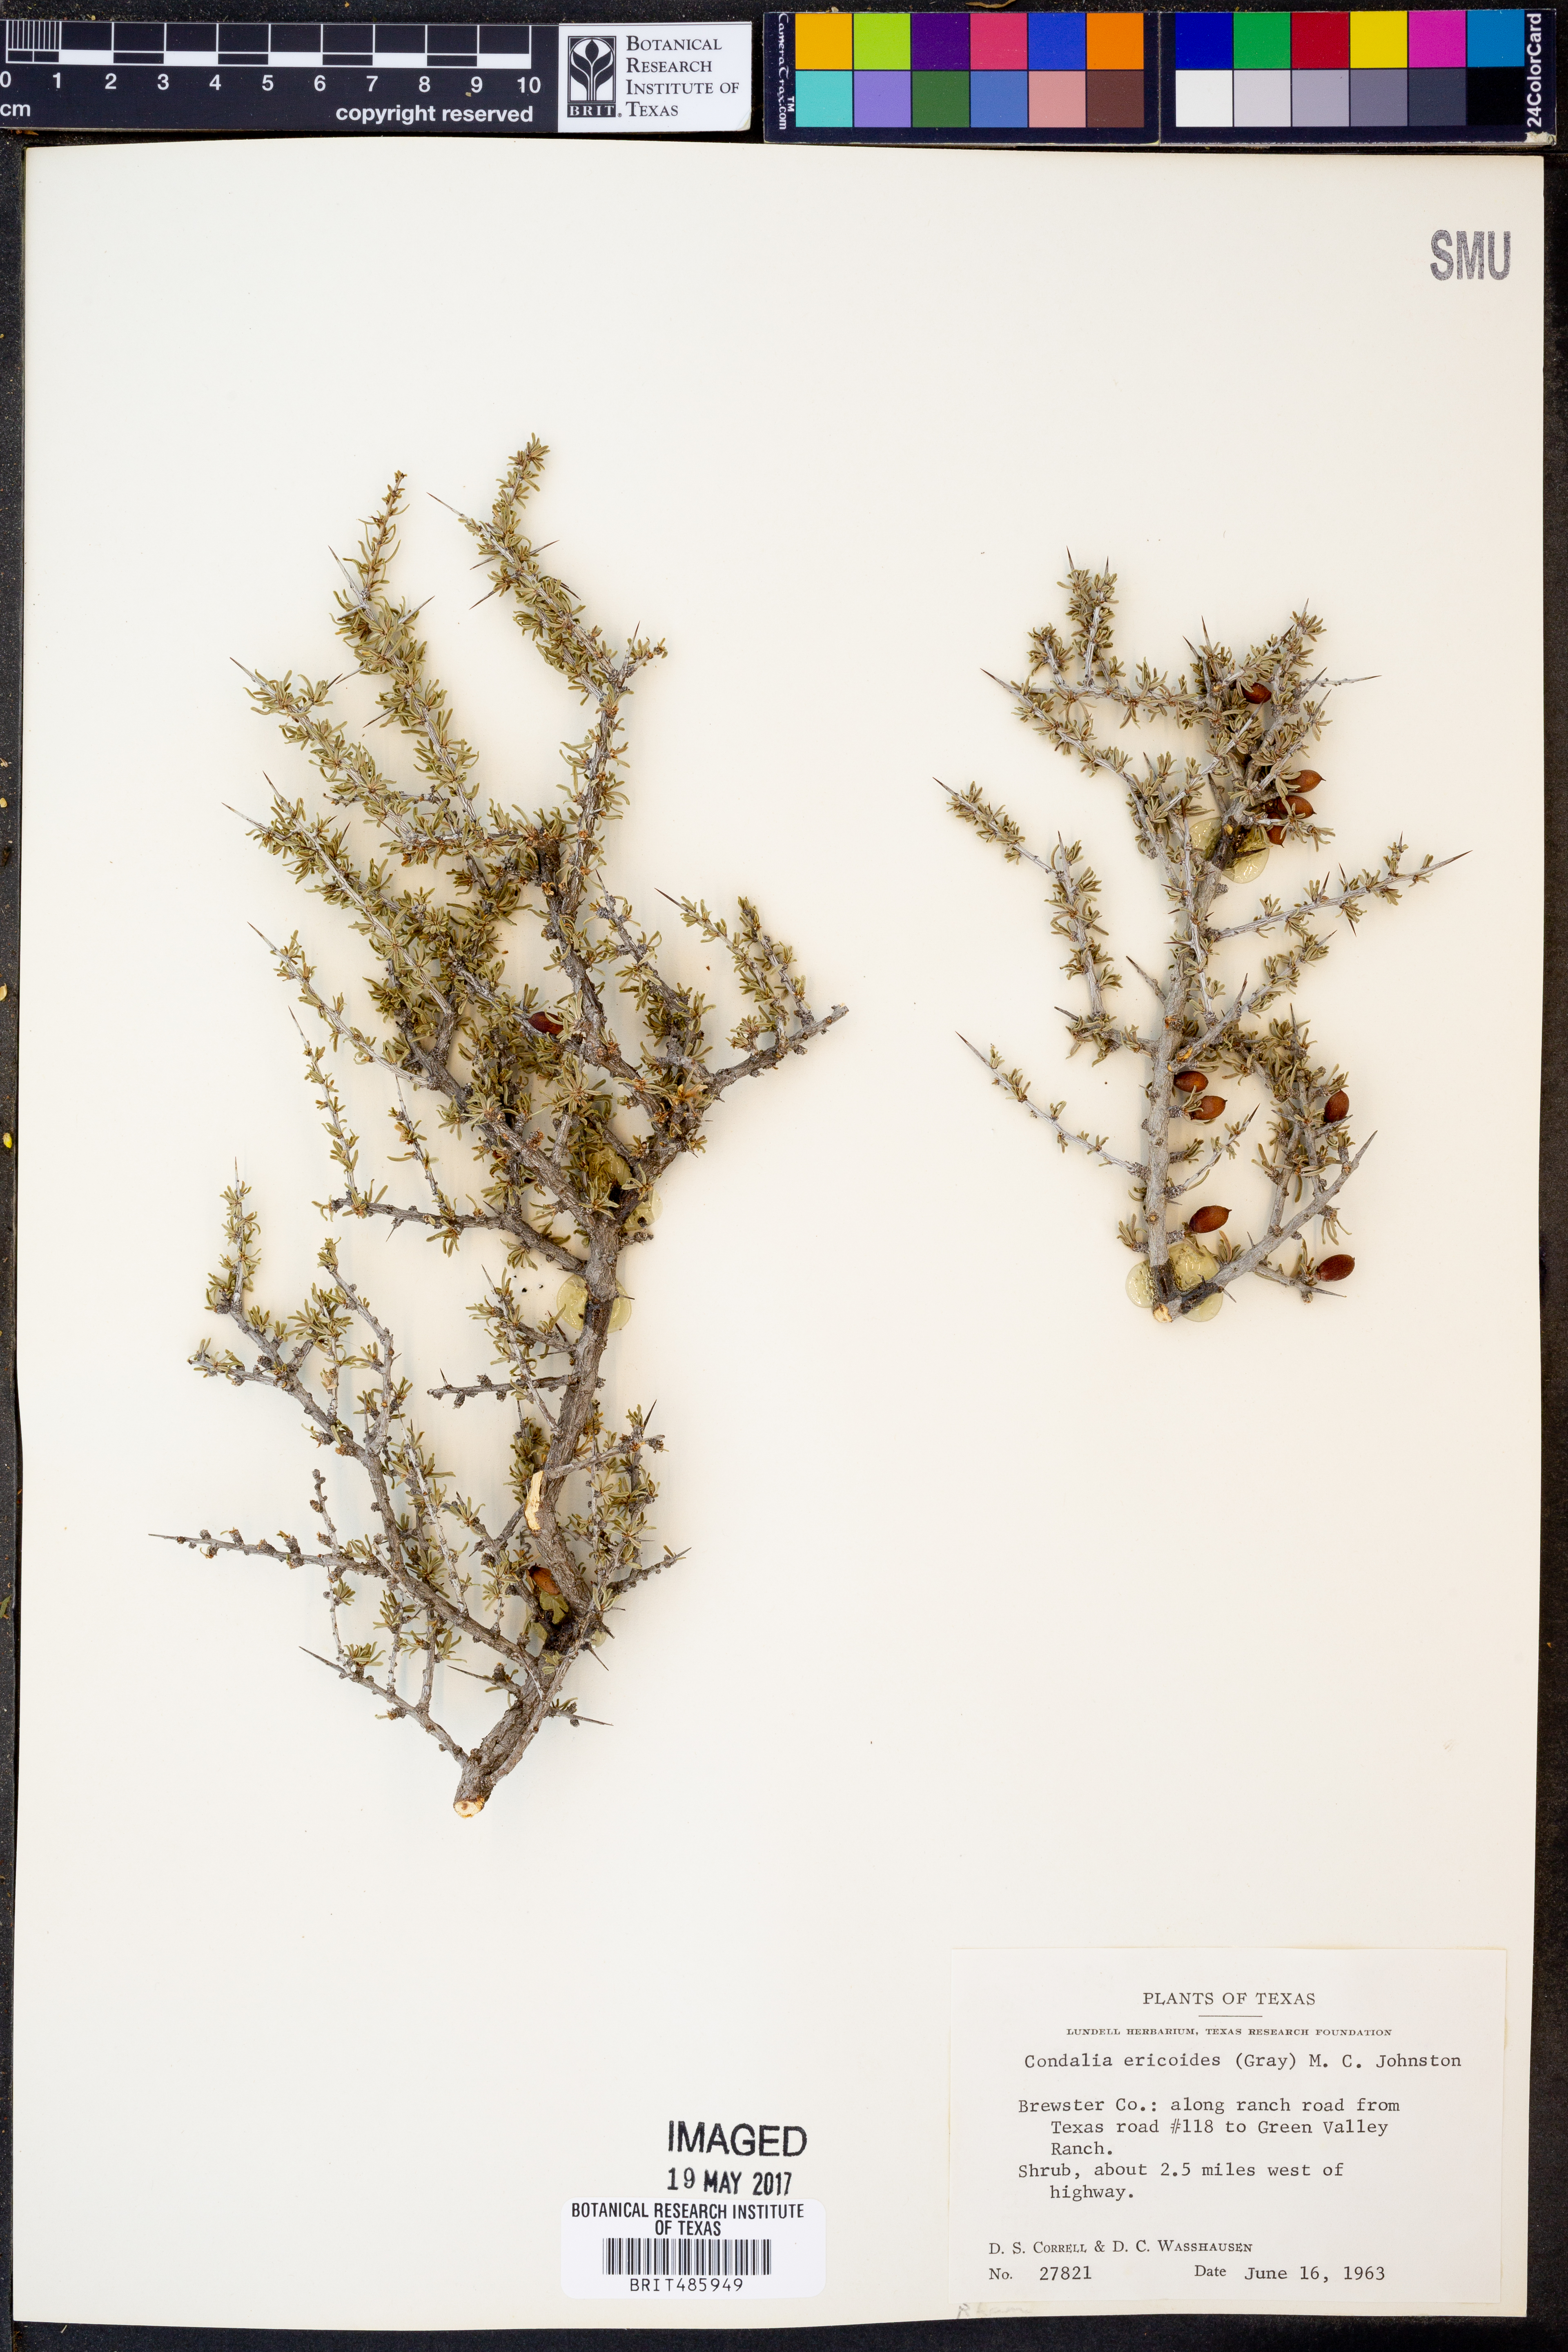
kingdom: Plantae
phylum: Tracheophyta
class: Magnoliopsida
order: Rosales
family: Rhamnaceae
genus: Condalia
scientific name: Condalia ericoides
